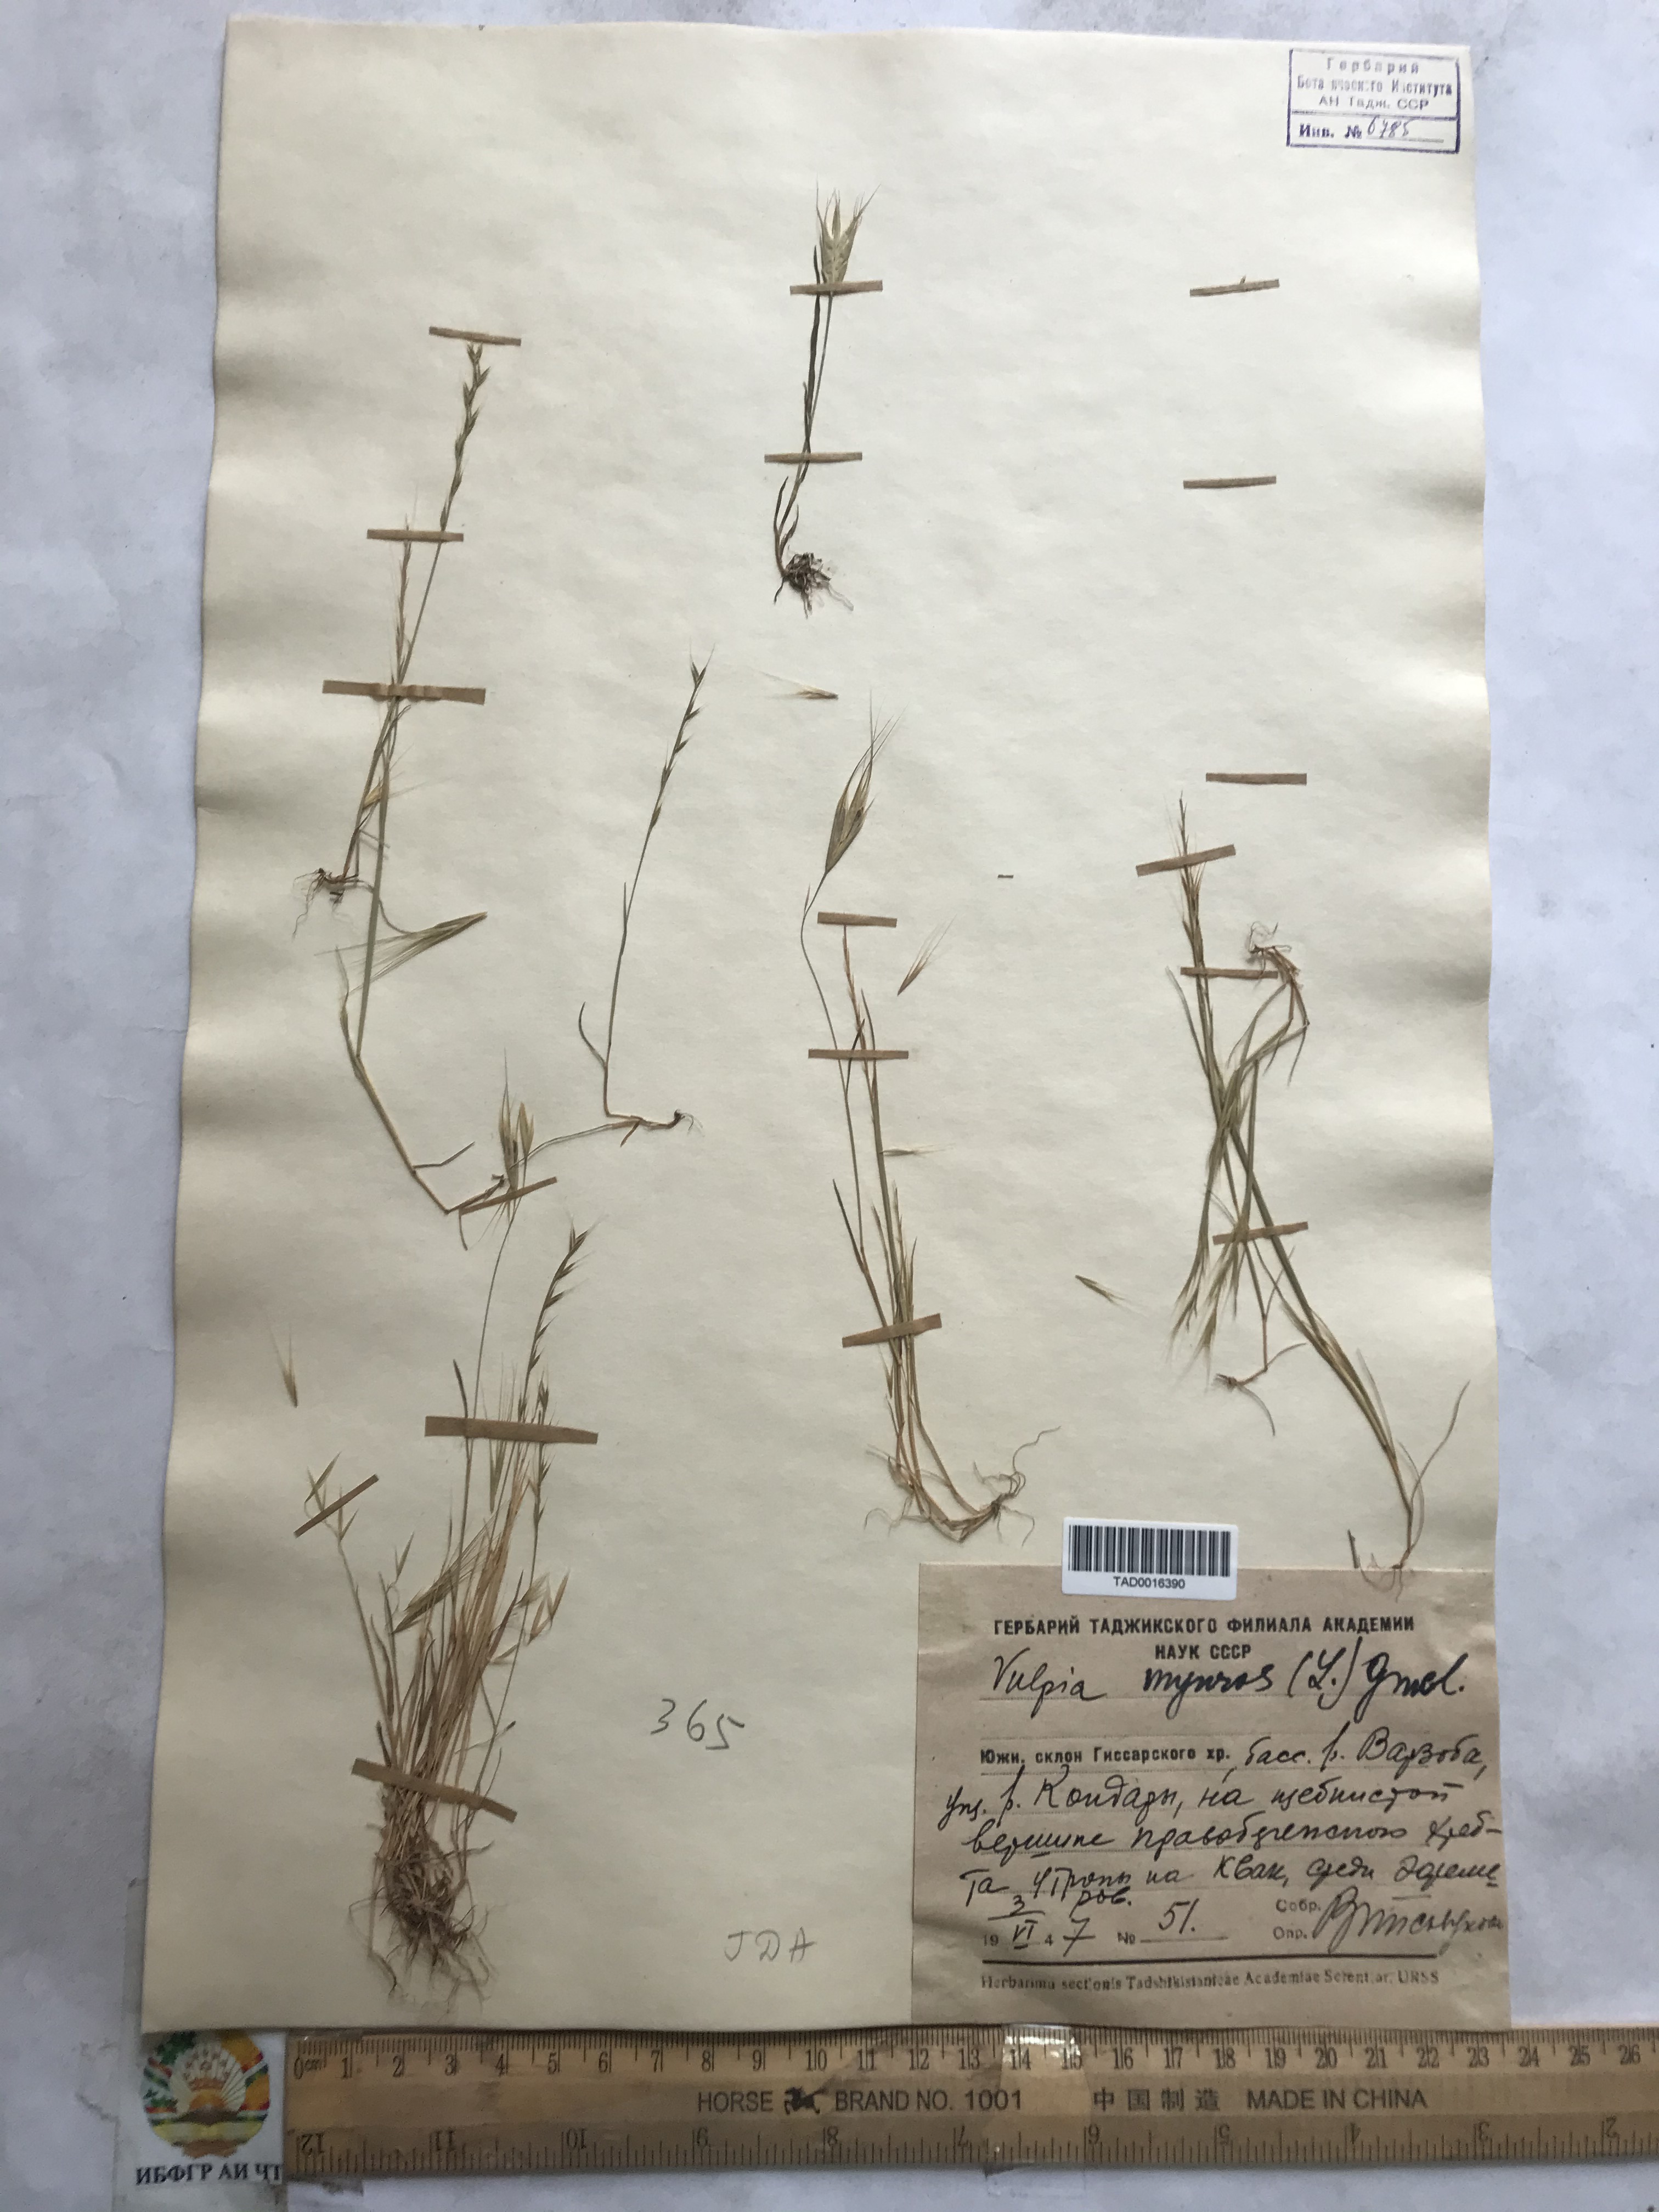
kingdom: Plantae
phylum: Tracheophyta
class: Liliopsida
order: Poales
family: Poaceae
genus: Festuca
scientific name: Festuca myuros
